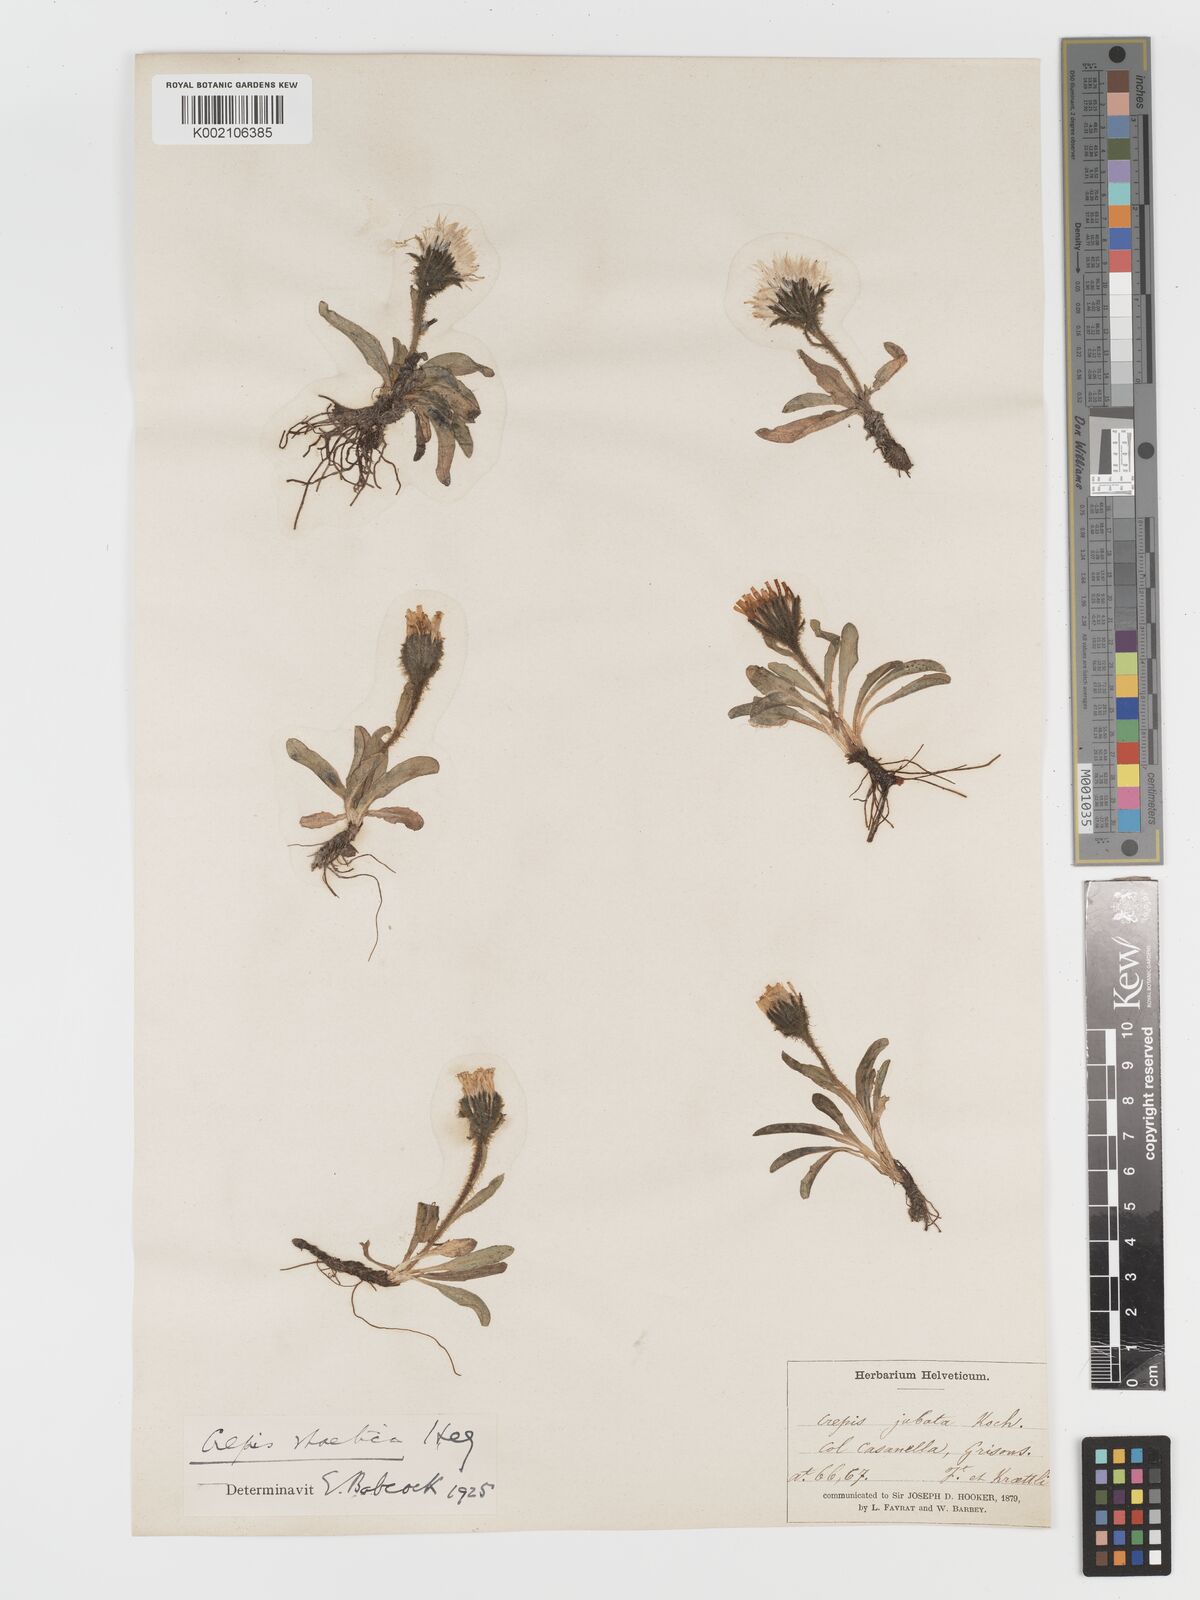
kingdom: Plantae
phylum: Tracheophyta
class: Magnoliopsida
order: Asterales
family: Asteraceae
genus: Crepis
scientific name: Crepis rhaetica
